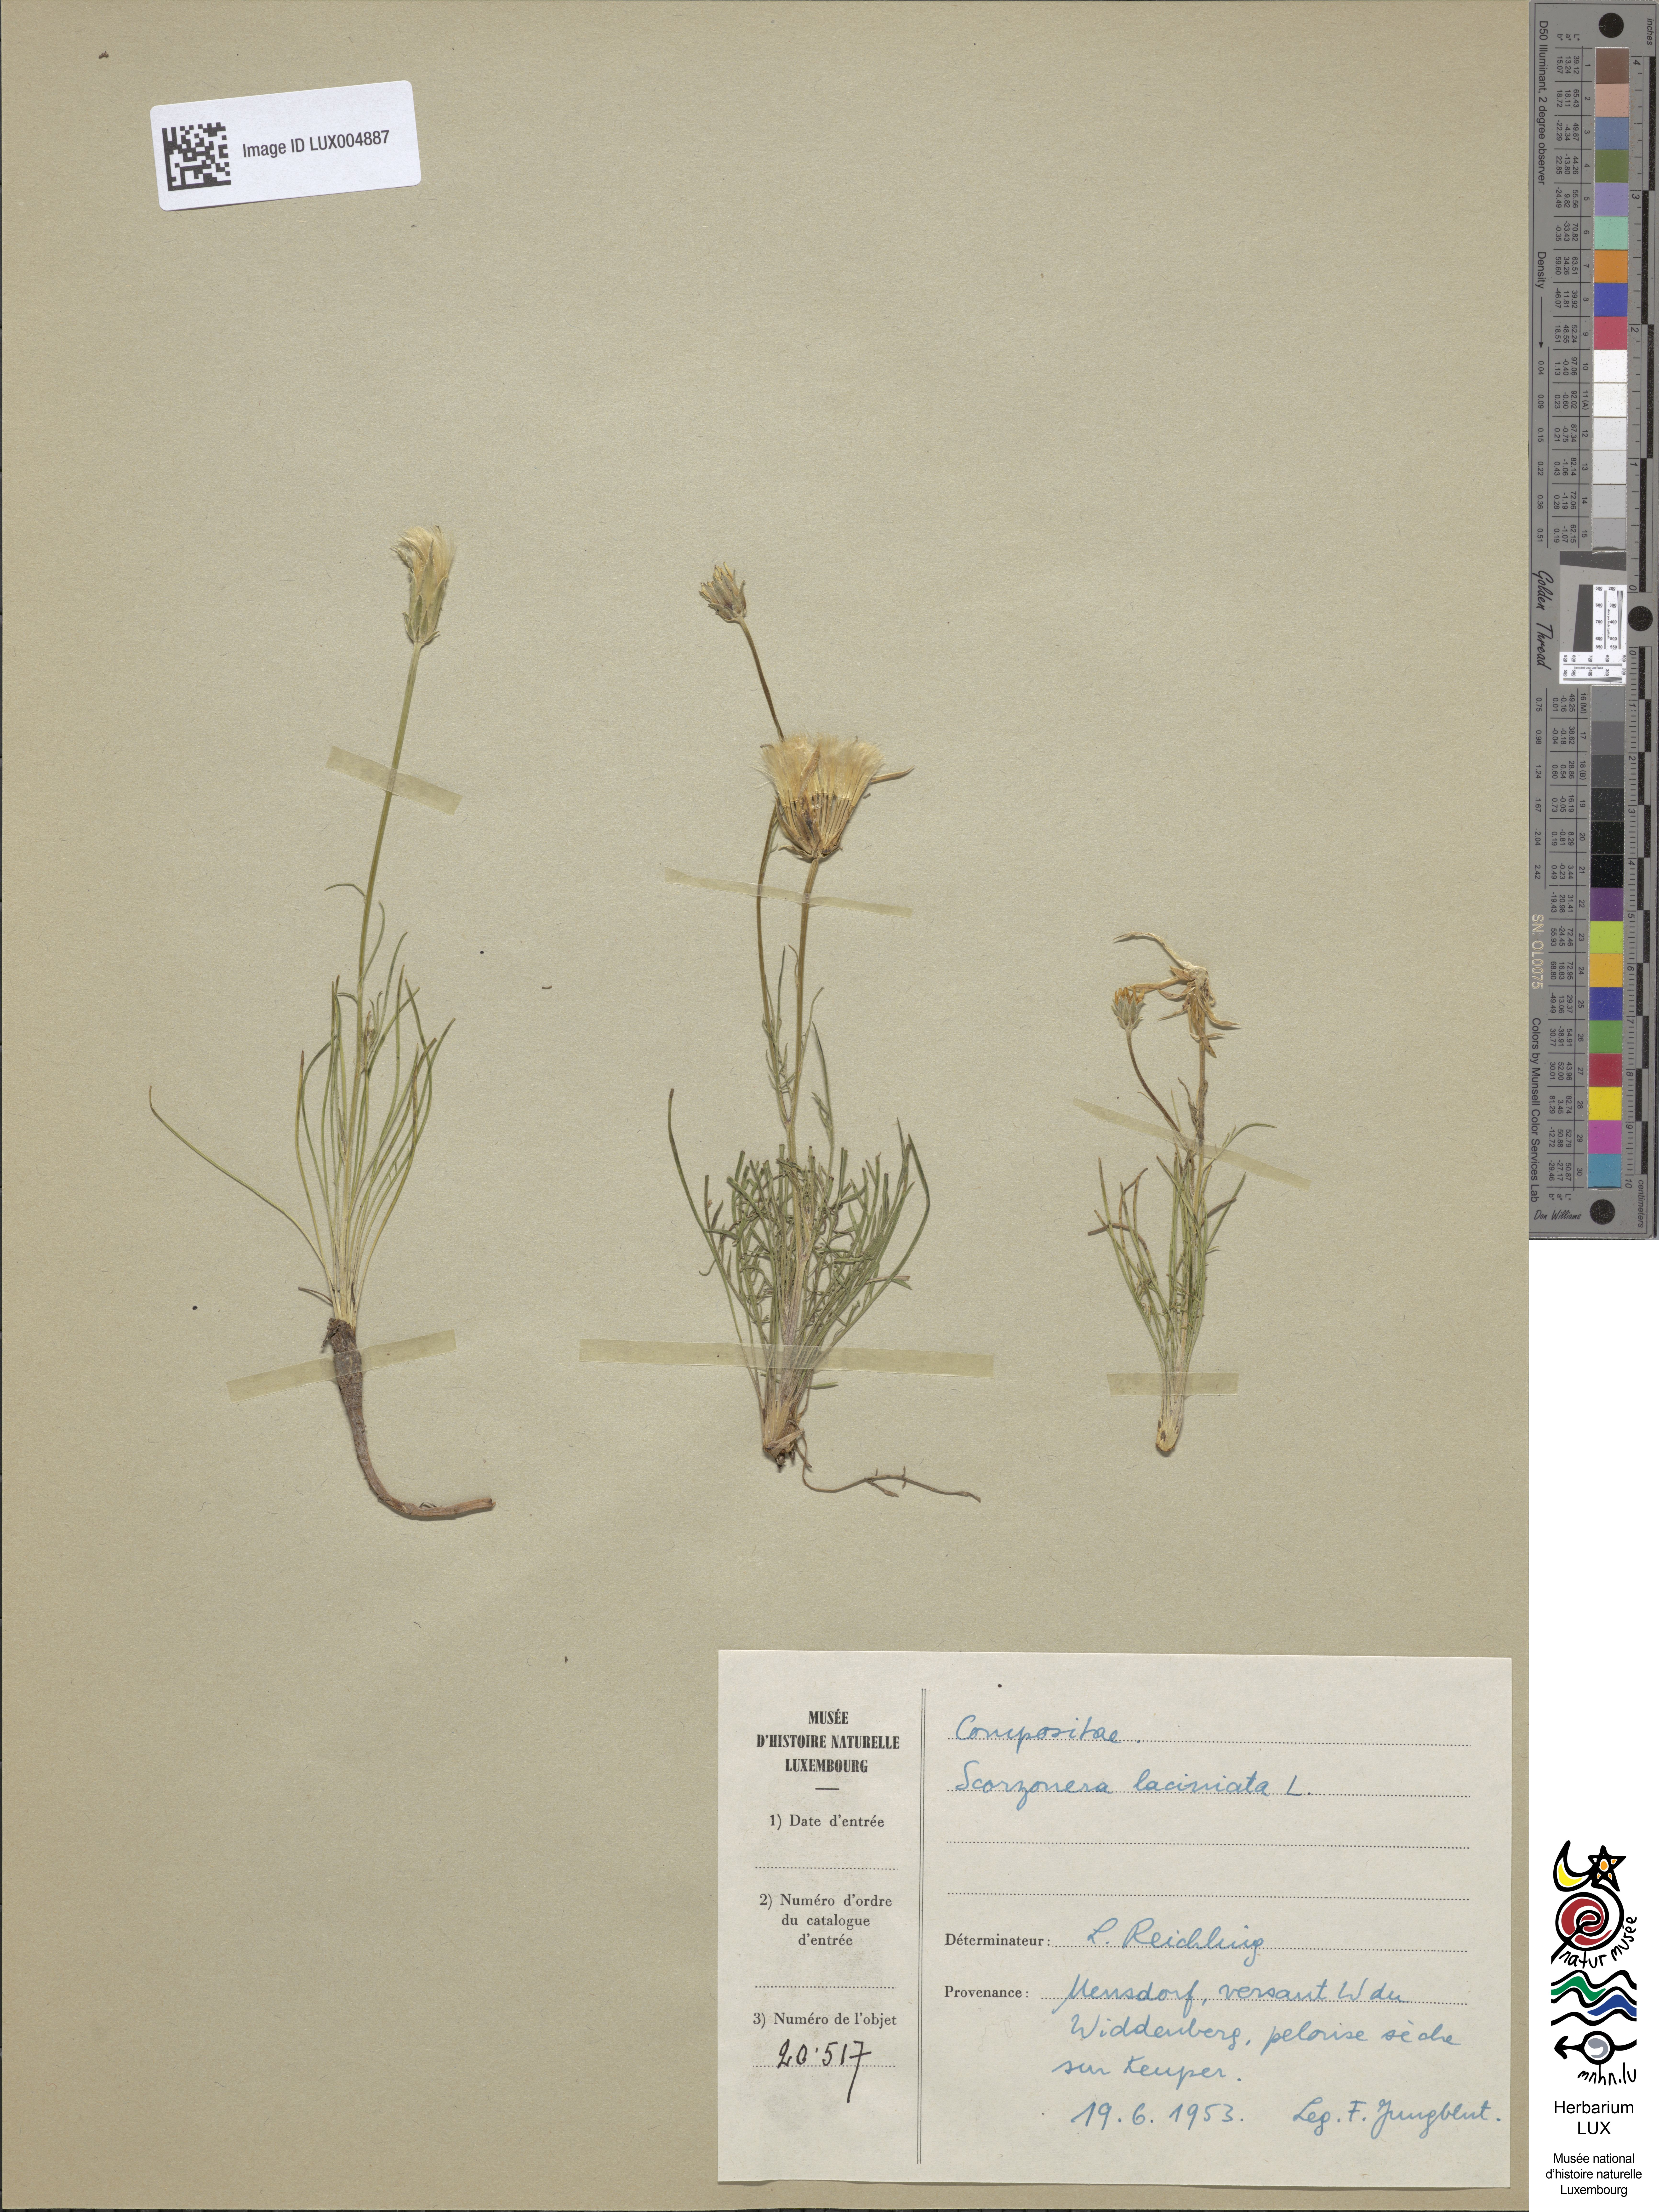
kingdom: Plantae
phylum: Tracheophyta
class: Magnoliopsida
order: Asterales
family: Asteraceae
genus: Scorzonera
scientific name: Scorzonera laciniata
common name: Cutleaf vipergrass
